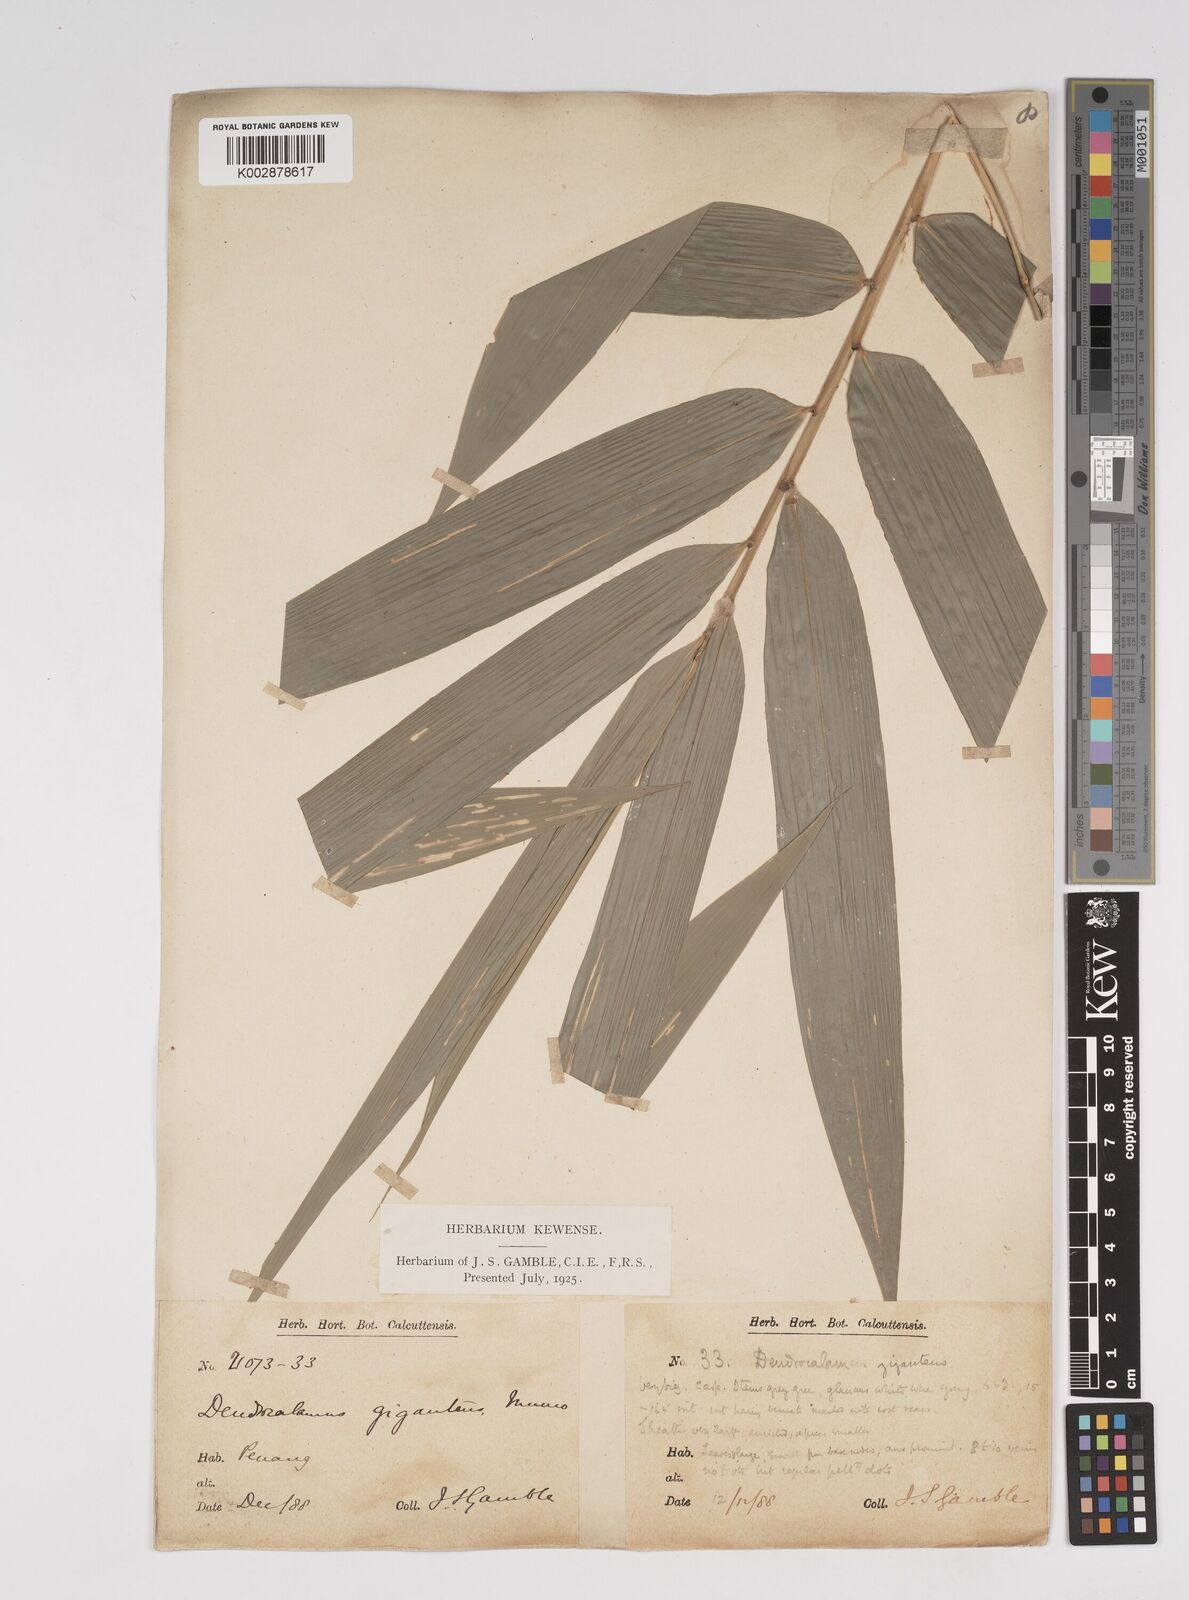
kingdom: Plantae
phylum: Tracheophyta
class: Liliopsida
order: Poales
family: Poaceae
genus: Dendrocalamus
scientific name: Dendrocalamus giganteus
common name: Giant bamboo
